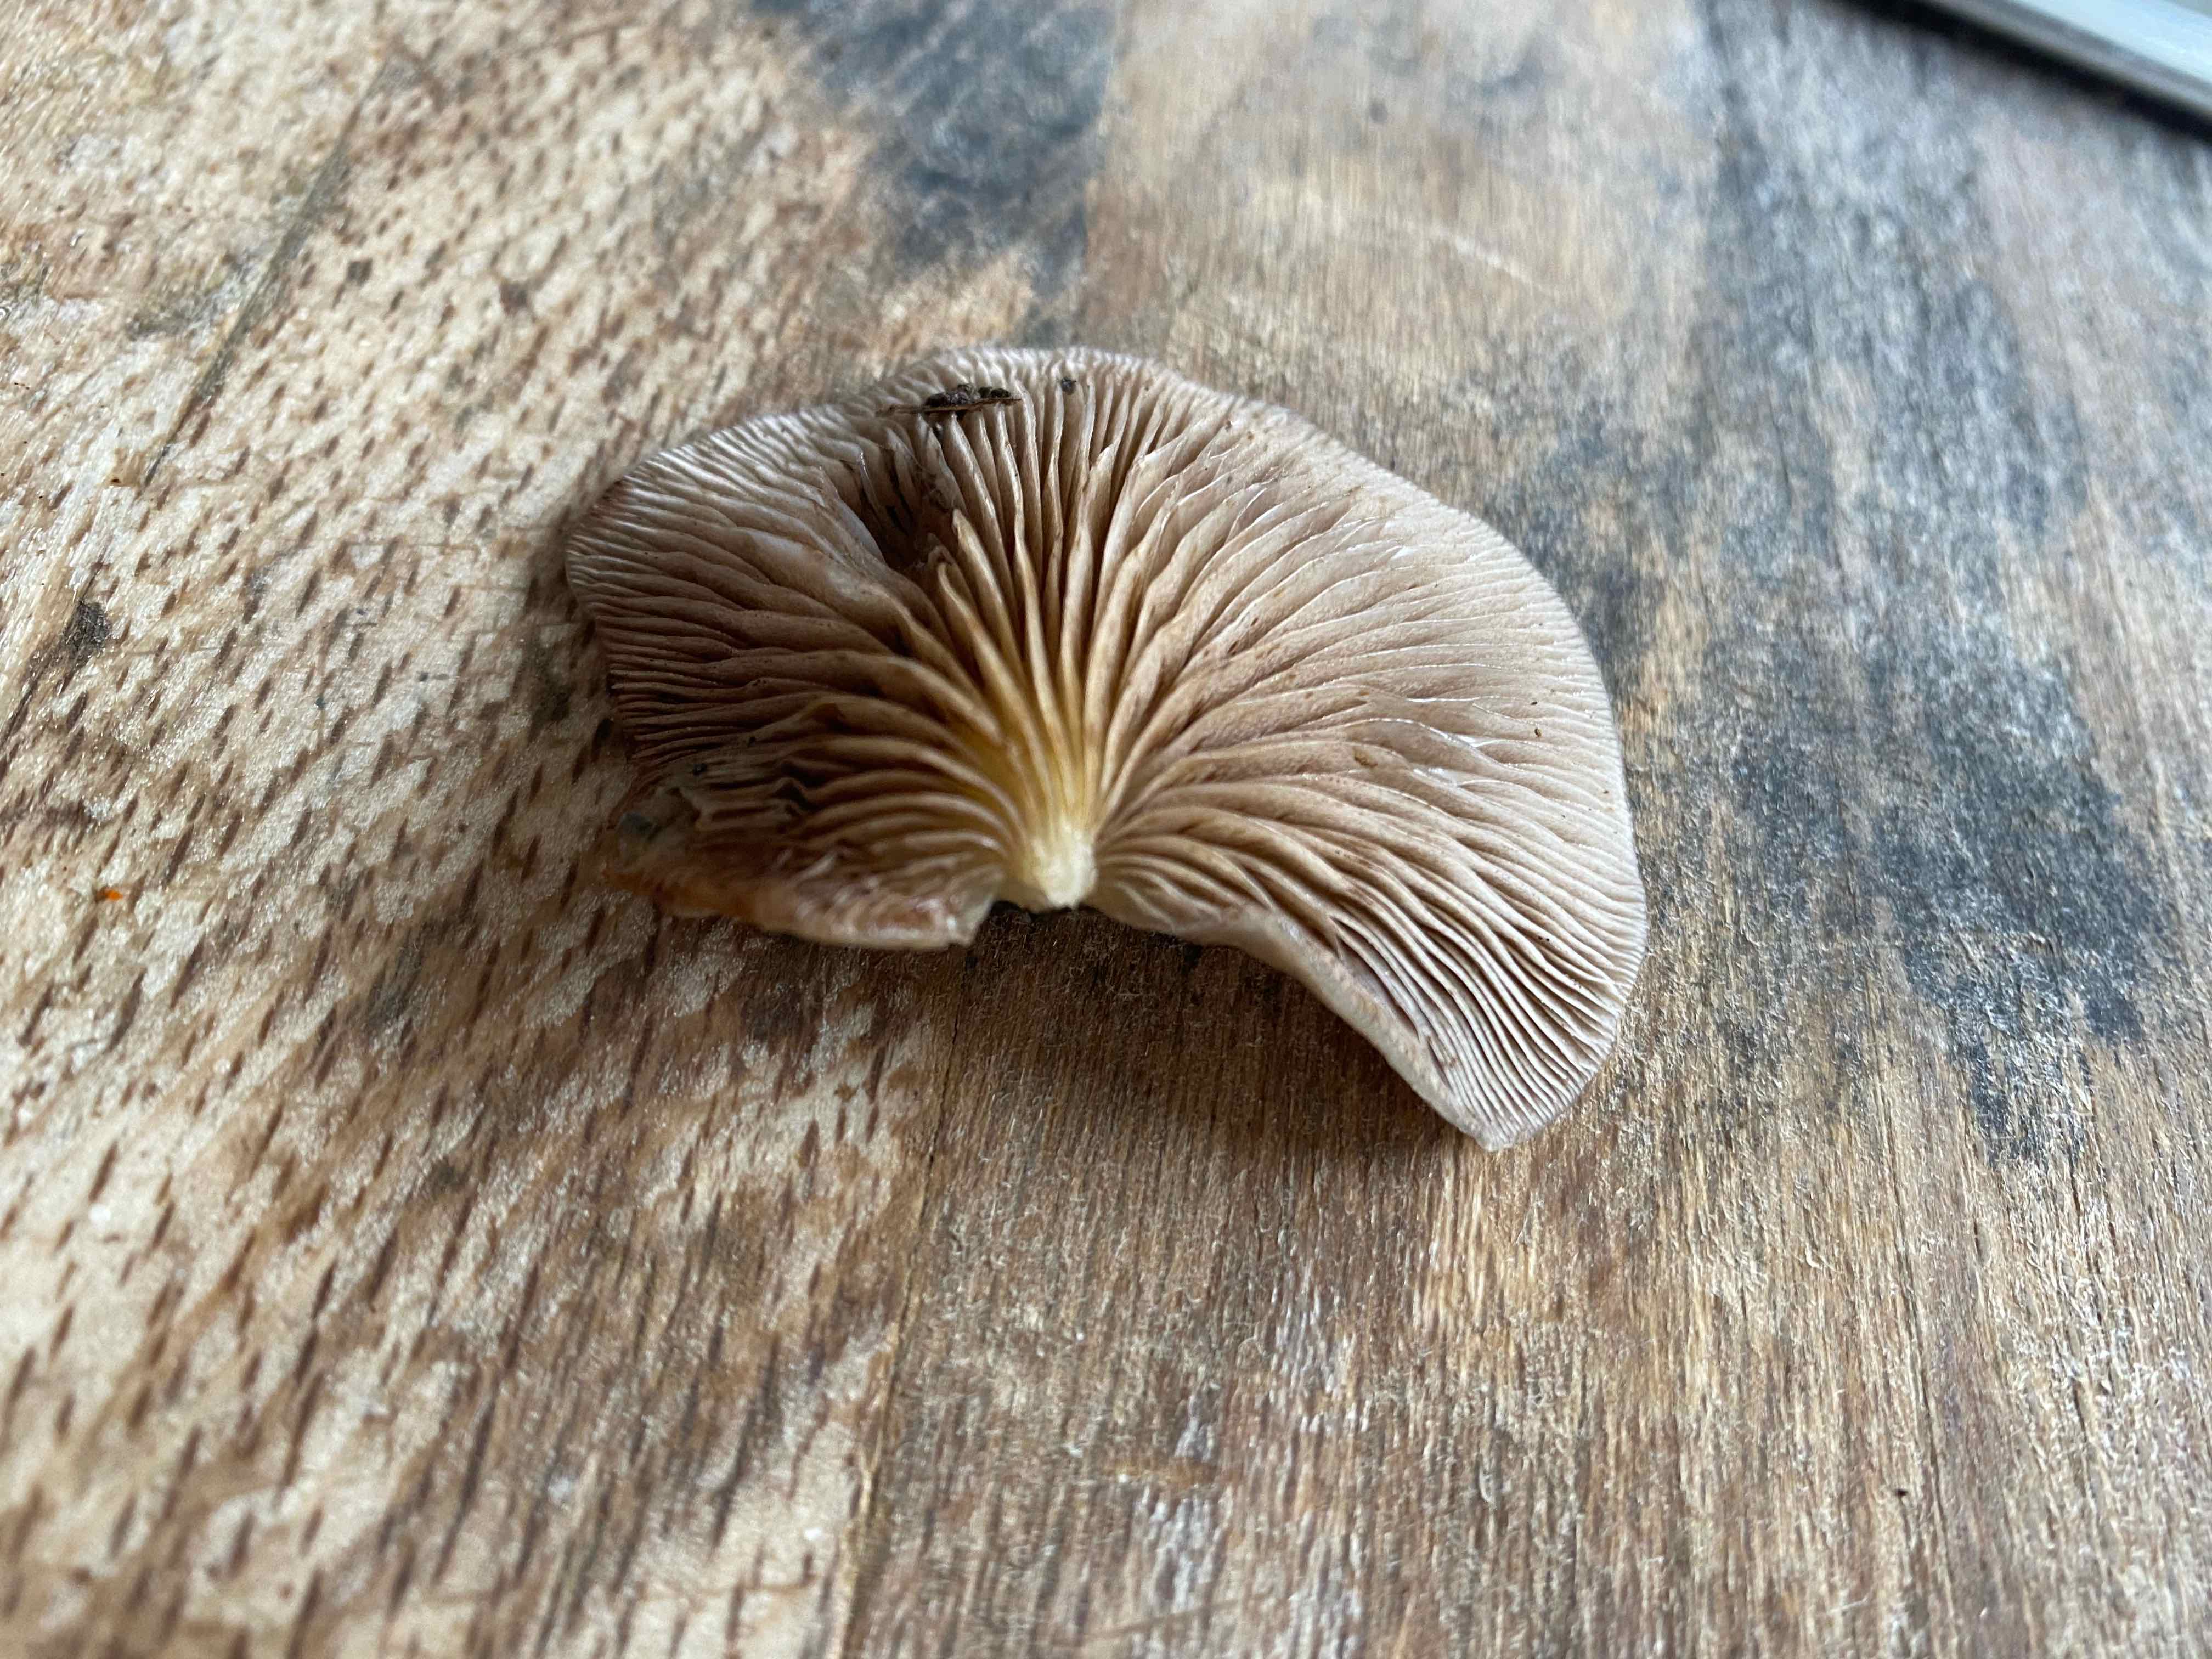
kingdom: Fungi
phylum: Basidiomycota
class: Agaricomycetes
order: Agaricales
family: Crepidotaceae
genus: Crepidotus
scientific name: Crepidotus mollis
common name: blød muslingesvamp
